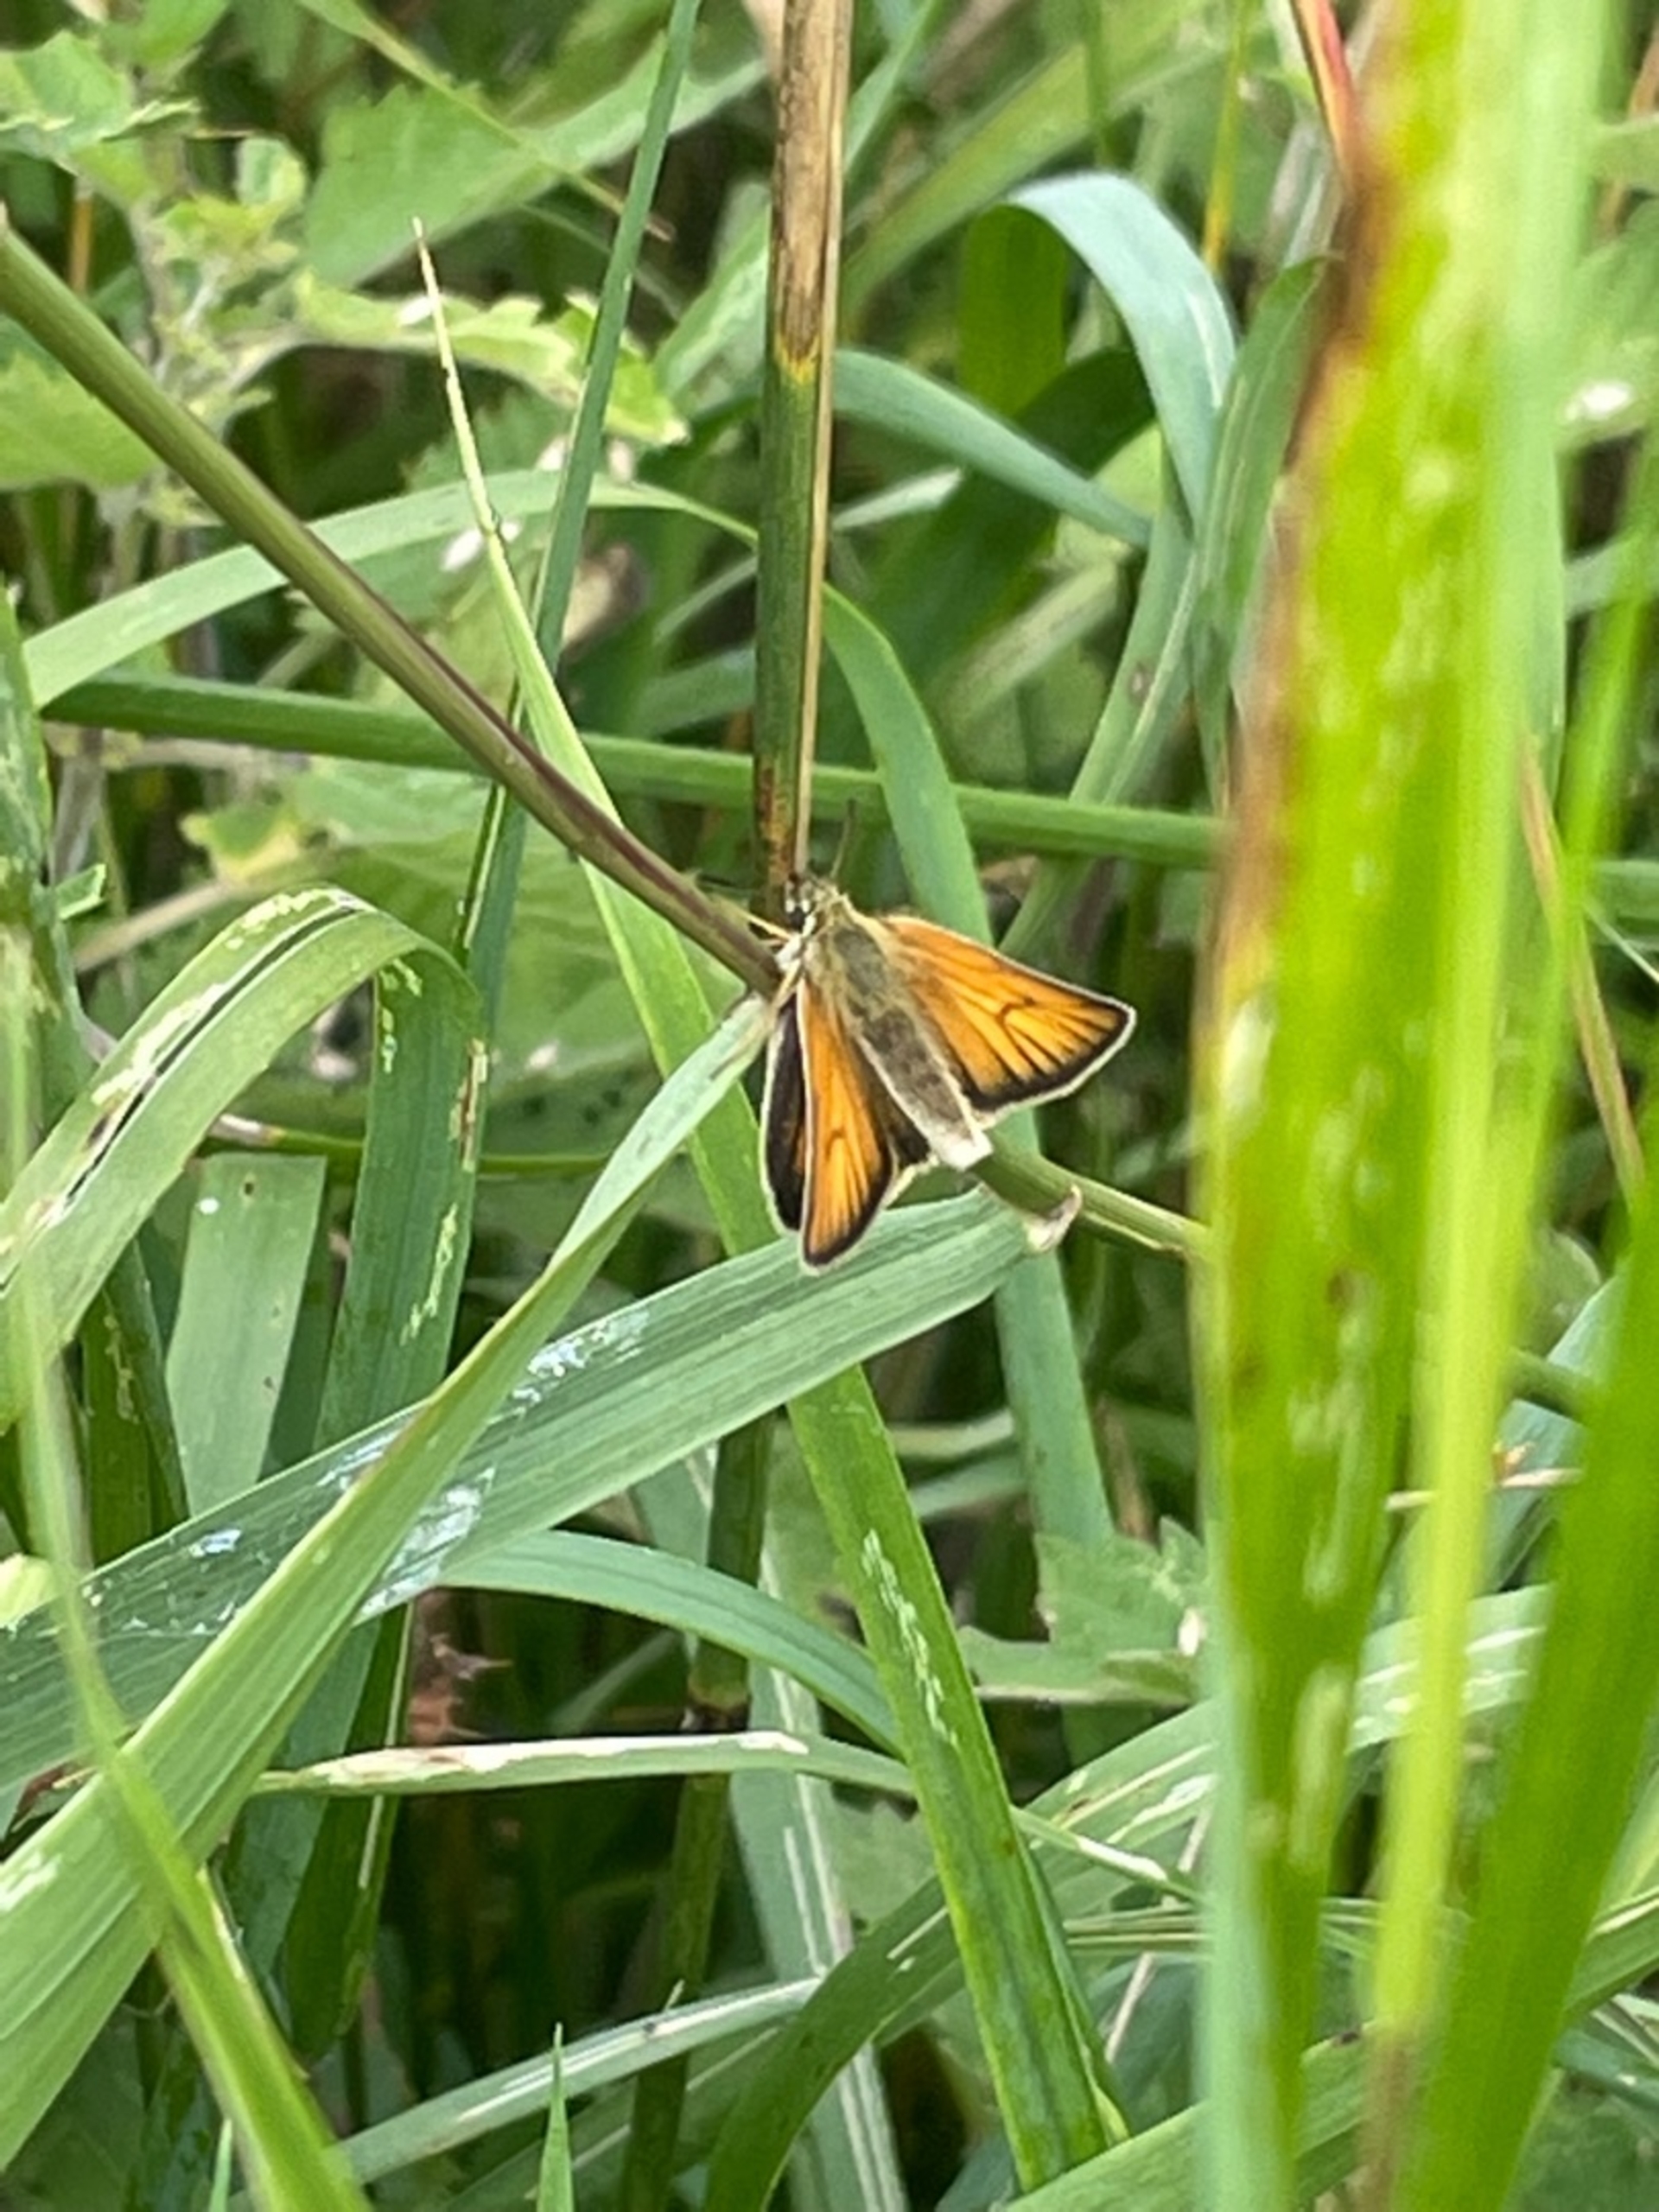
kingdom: Animalia
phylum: Arthropoda
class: Insecta
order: Lepidoptera
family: Hesperiidae
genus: Thymelicus
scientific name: Thymelicus lineola
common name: Stregbredpande
